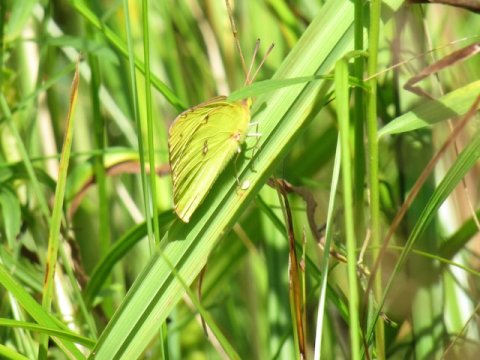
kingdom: Animalia
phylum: Arthropoda
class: Insecta
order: Lepidoptera
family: Pieridae
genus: Colias
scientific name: Colias philodice
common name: Clouded Sulphur
